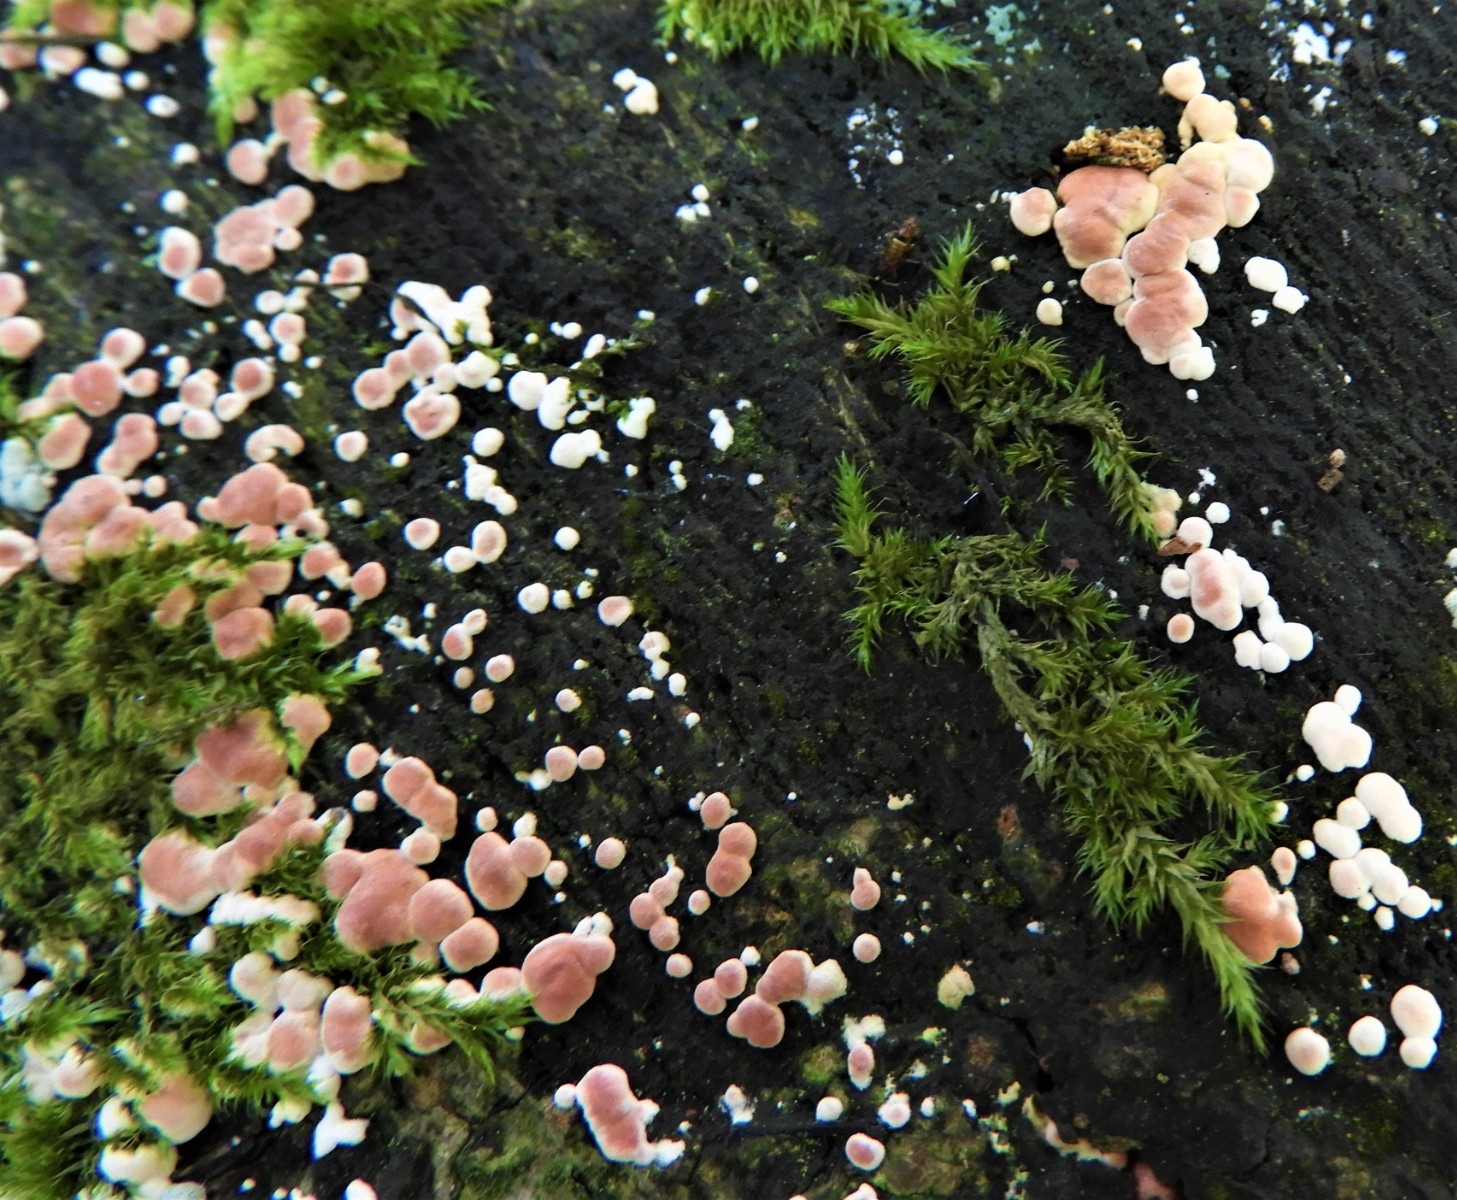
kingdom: Fungi
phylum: Ascomycota
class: Sordariomycetes
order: Hypocreales
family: Hypocreaceae
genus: Trichoderma
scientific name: Trichoderma
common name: kødkerne
